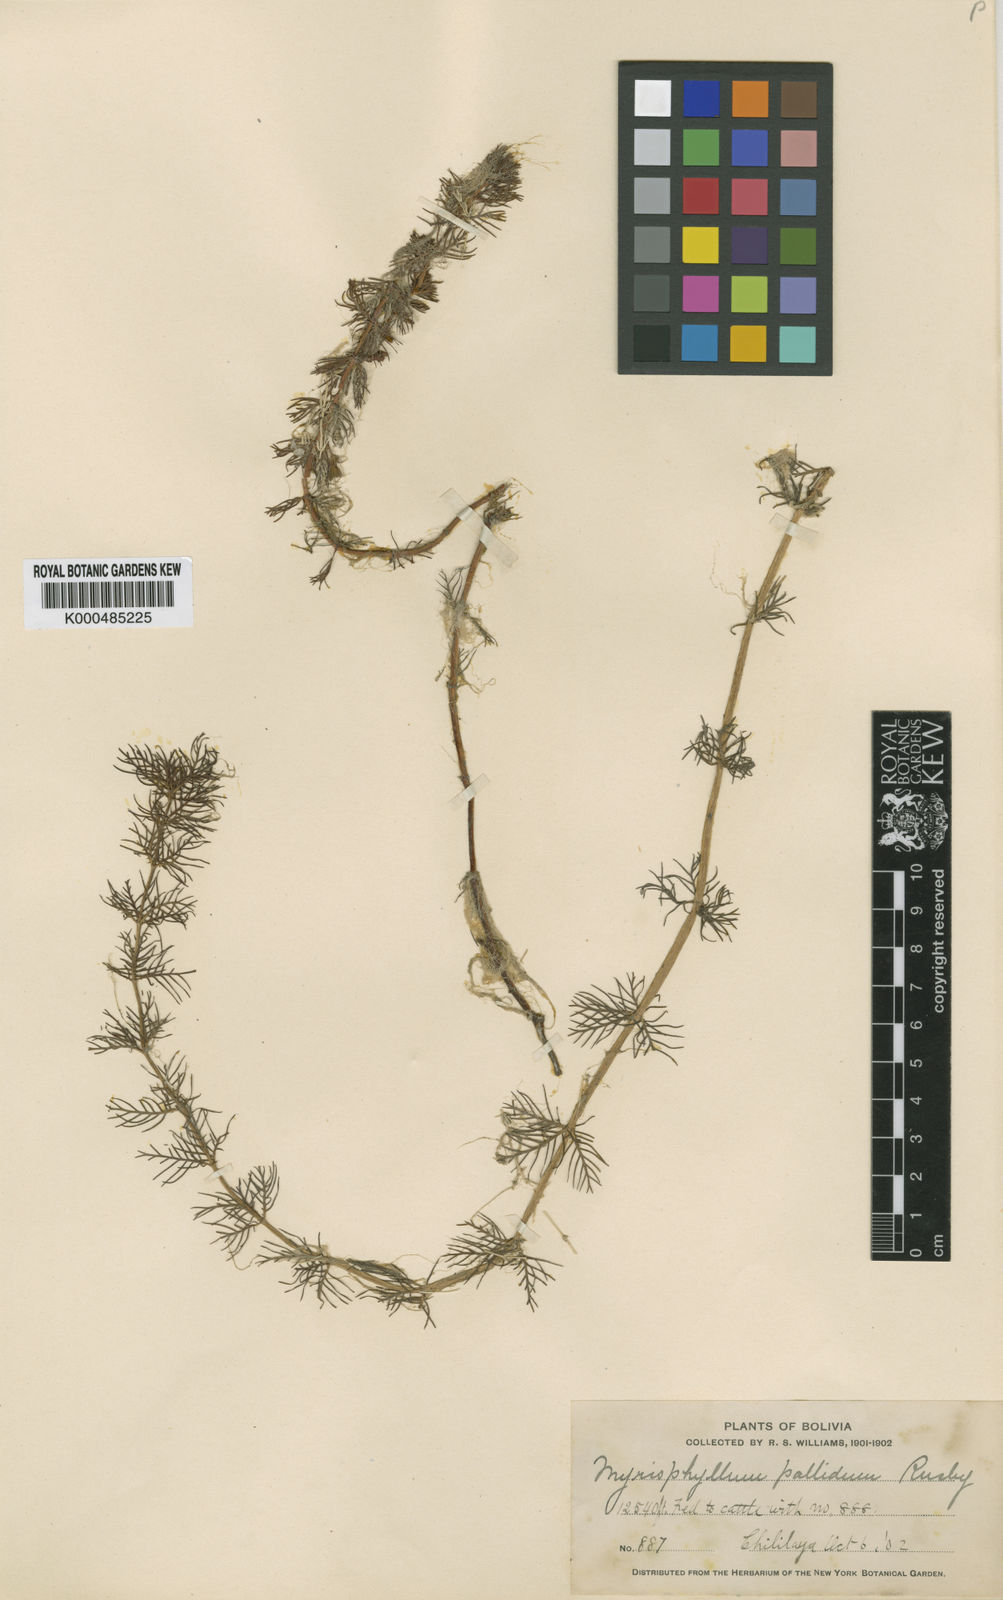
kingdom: Plantae
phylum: Tracheophyta
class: Magnoliopsida
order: Saxifragales
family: Haloragaceae
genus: Myriophyllum
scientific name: Myriophyllum quitense
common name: Andean water milfoil
